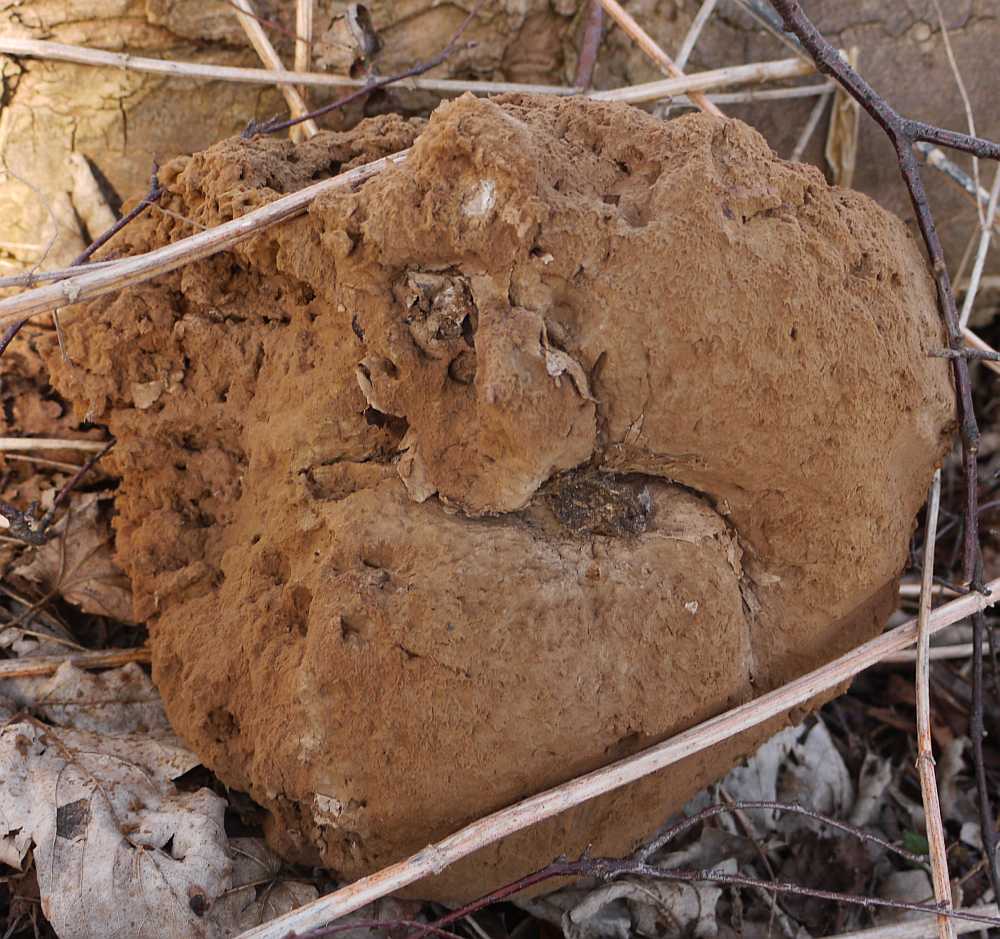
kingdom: Fungi
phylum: Basidiomycota
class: Agaricomycetes
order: Agaricales
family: Lycoperdaceae
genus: Calvatia
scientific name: Calvatia gigantea
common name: kæmpestøvbold
